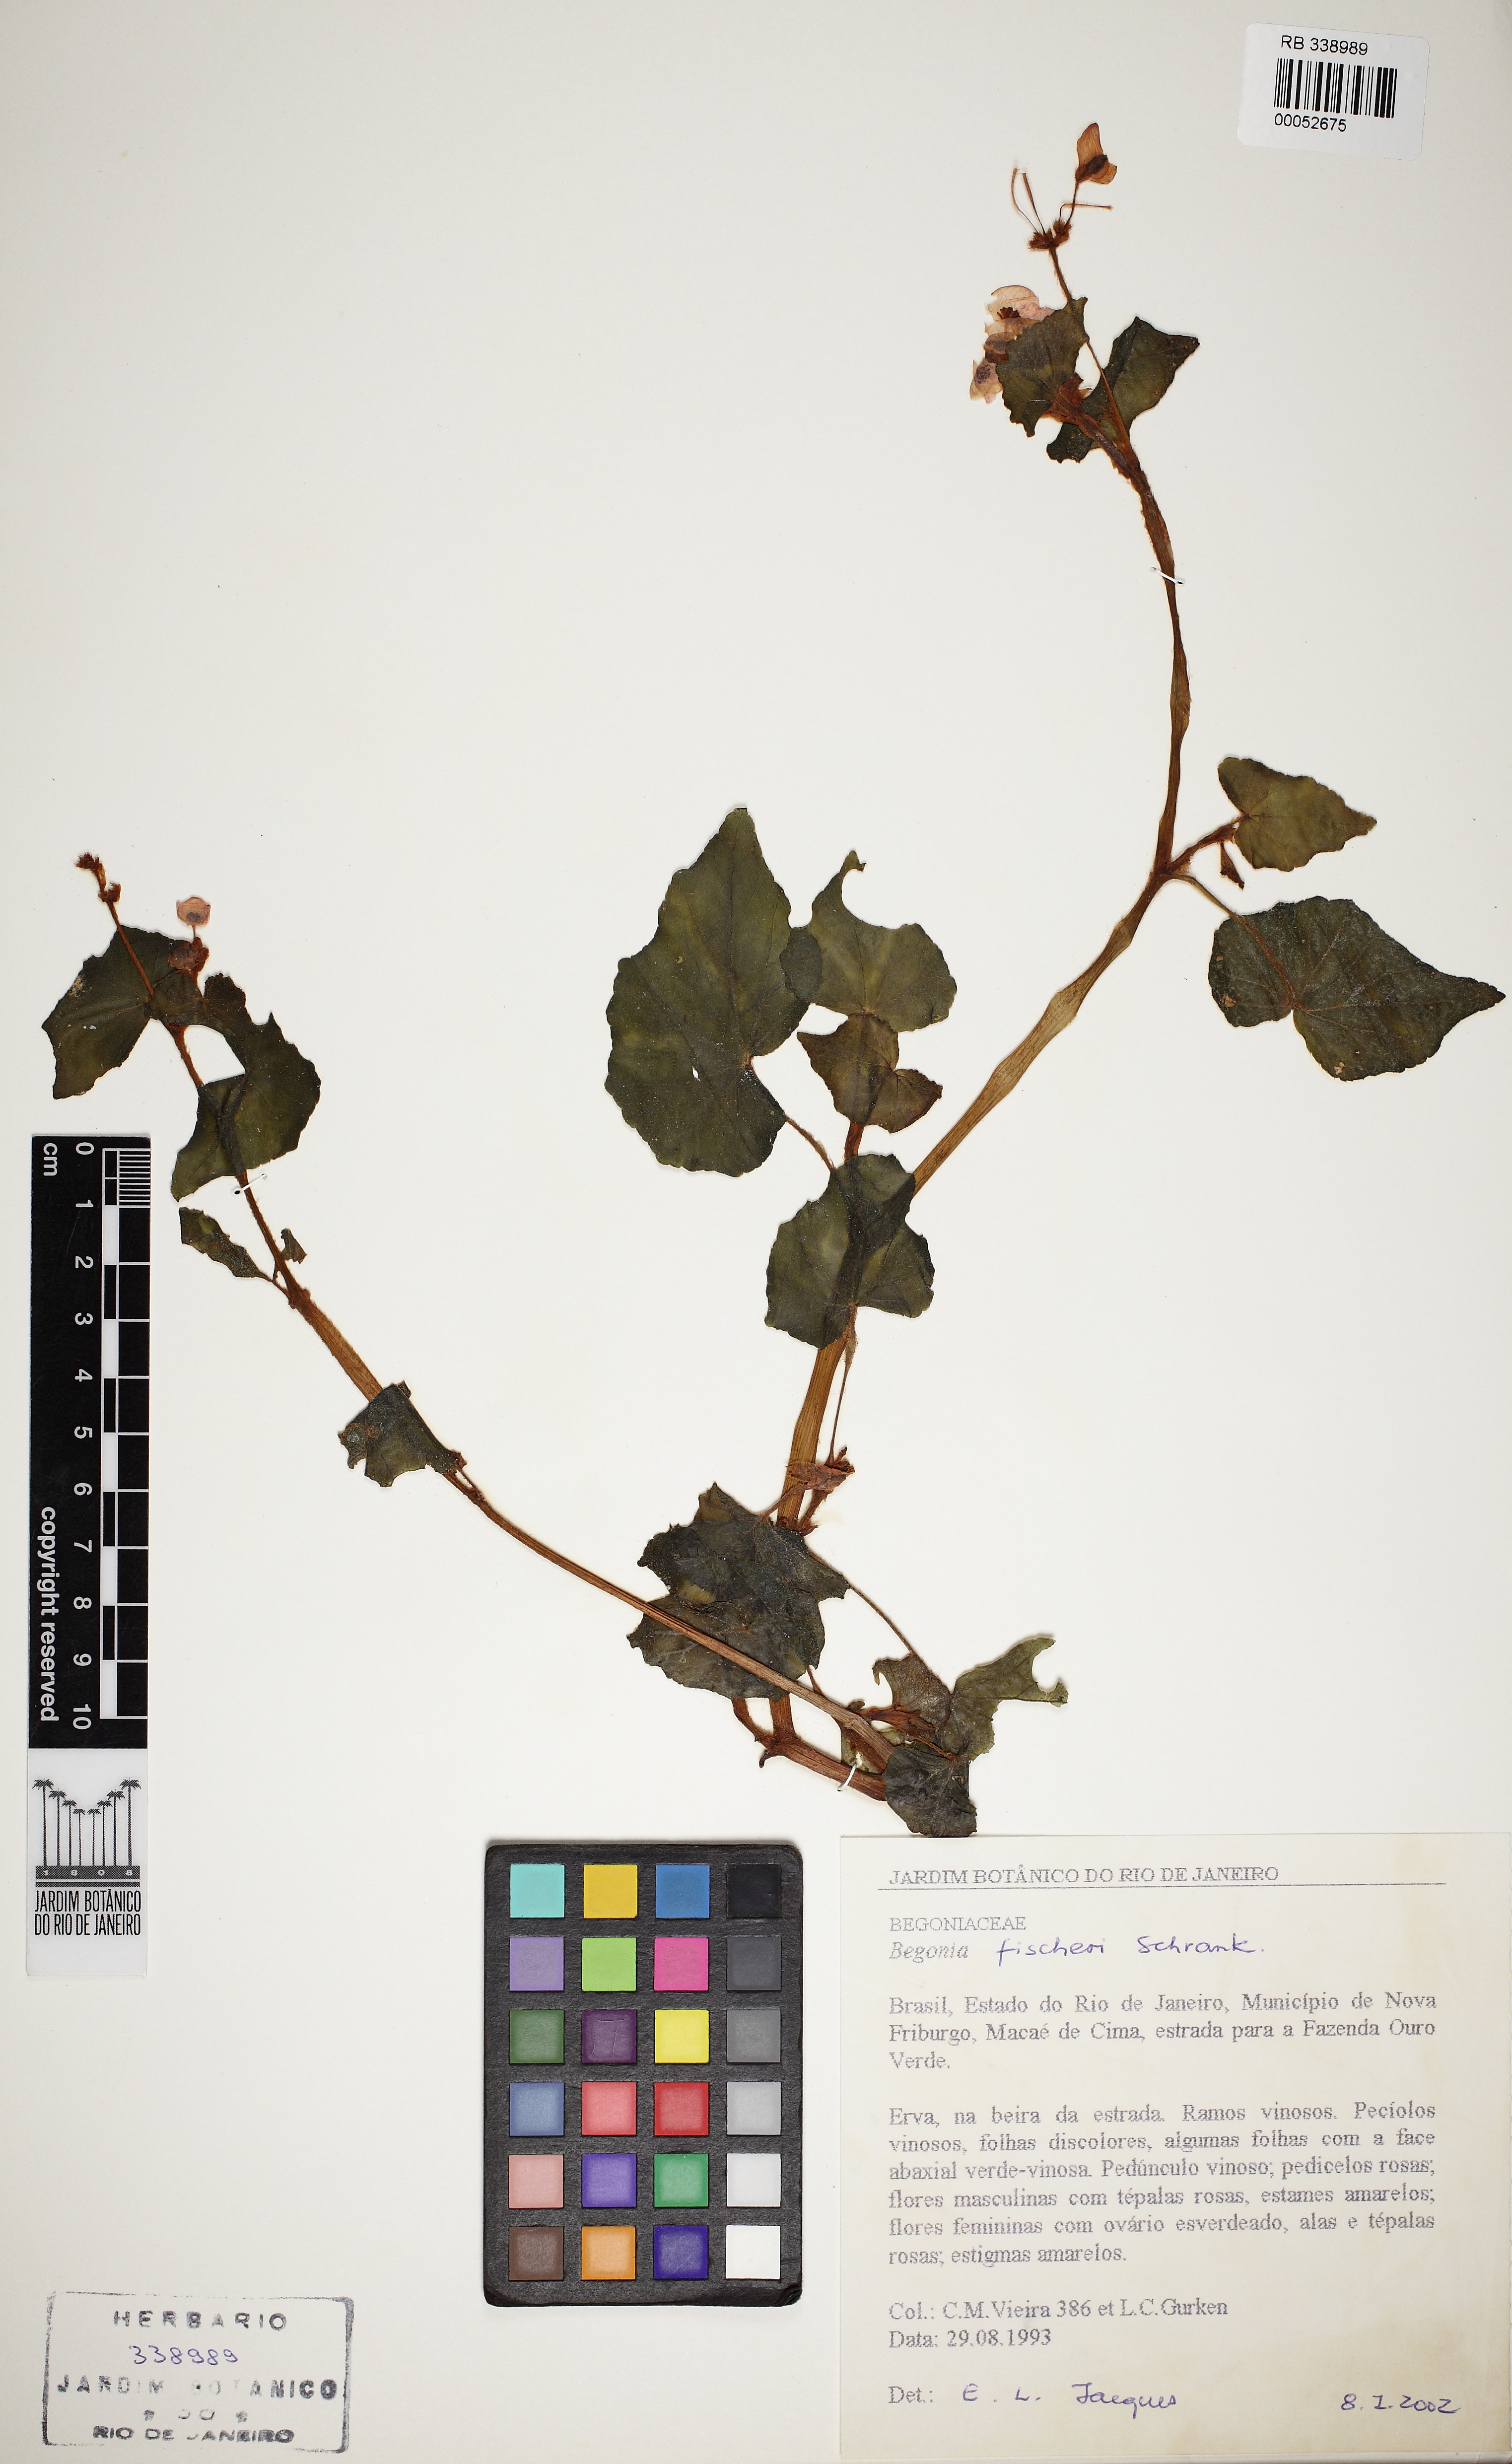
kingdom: Plantae
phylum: Tracheophyta
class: Magnoliopsida
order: Cucurbitales
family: Begoniaceae
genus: Begonia
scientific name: Begonia fischeri
